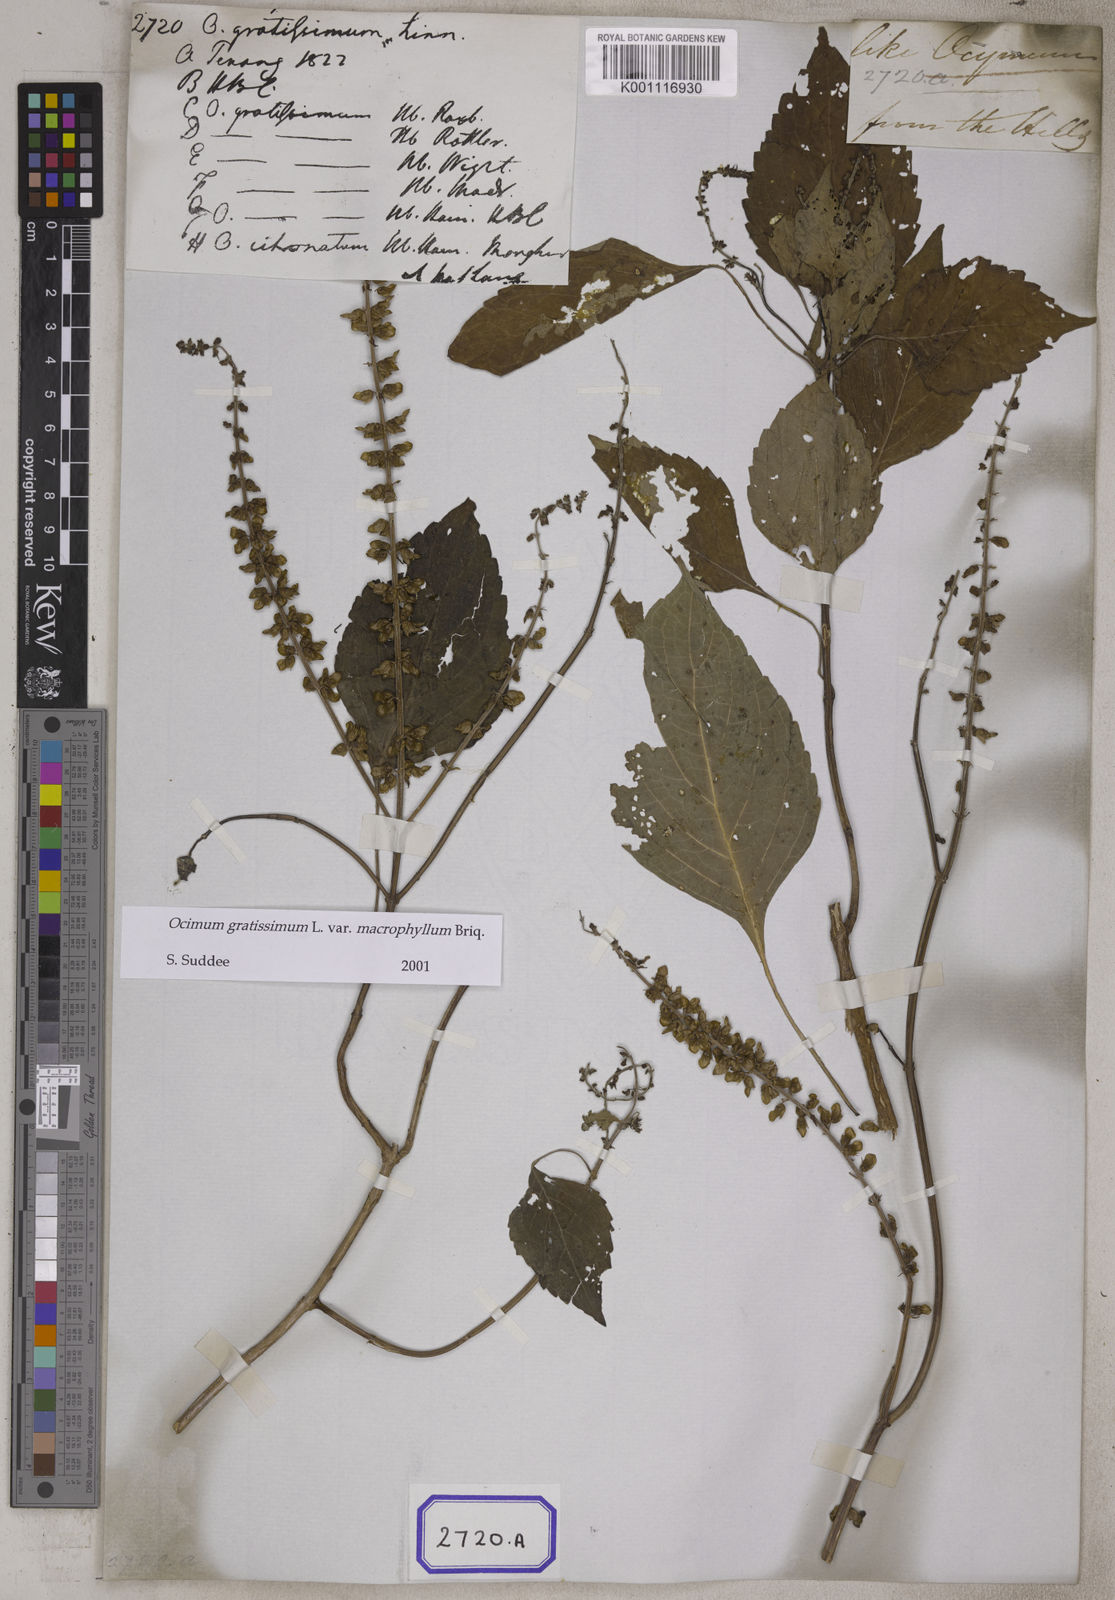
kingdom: Plantae
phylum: Tracheophyta
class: Magnoliopsida
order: Lamiales
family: Lamiaceae
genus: Ocimum
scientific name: Ocimum gratissimum
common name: African basil
